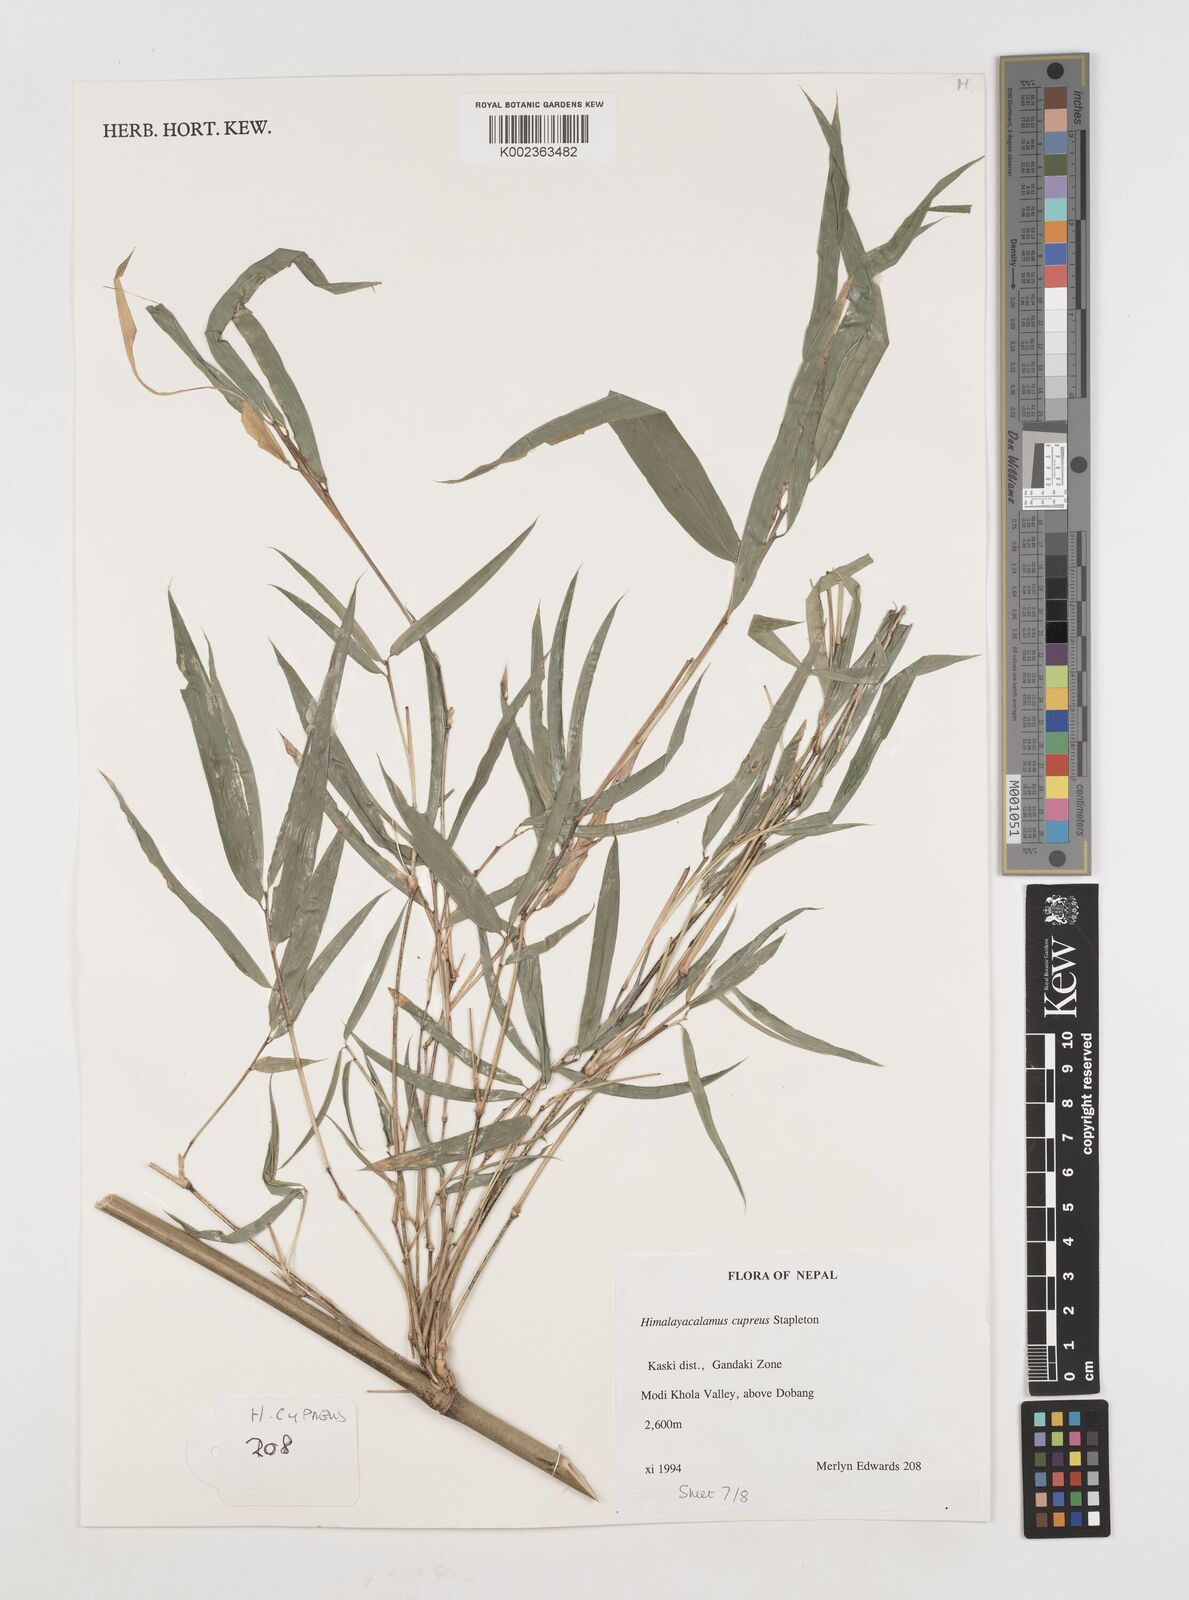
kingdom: Plantae
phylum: Tracheophyta
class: Liliopsida
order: Poales
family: Poaceae
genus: Himalayacalamus
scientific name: Himalayacalamus cupreus
